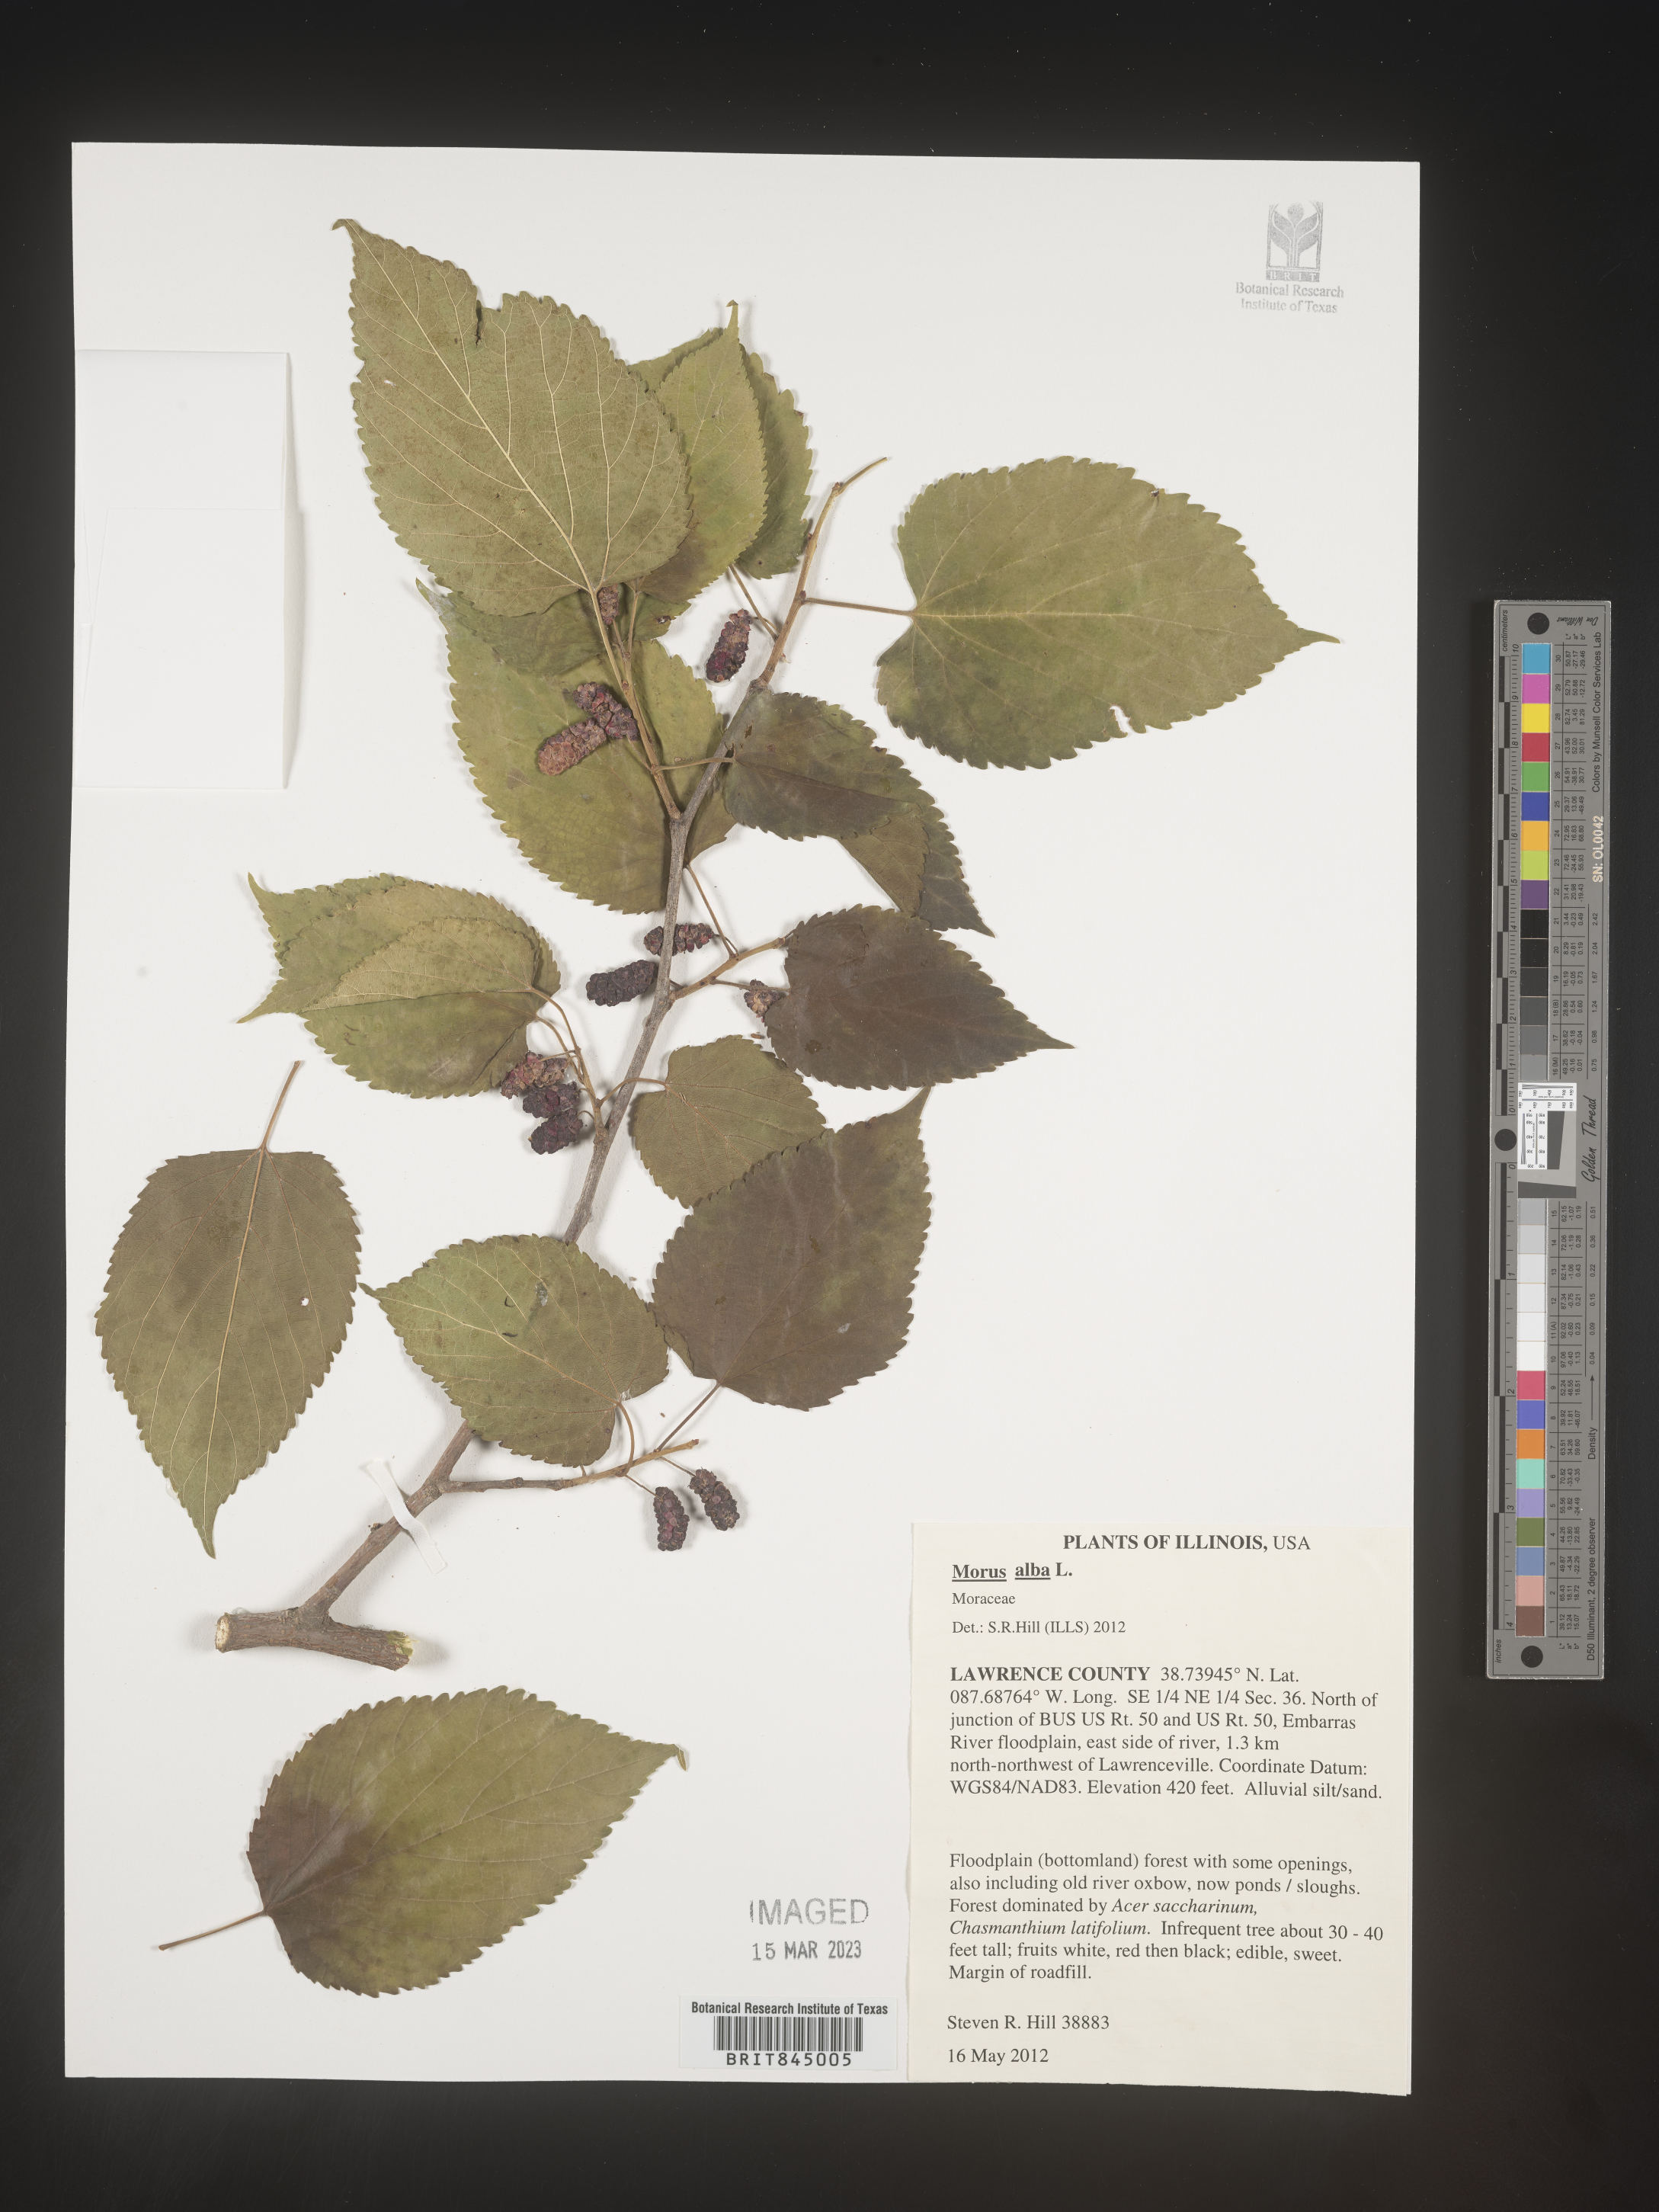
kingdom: Plantae
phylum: Tracheophyta
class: Magnoliopsida
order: Rosales
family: Moraceae
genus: Morus
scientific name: Morus alba
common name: White mulberry
